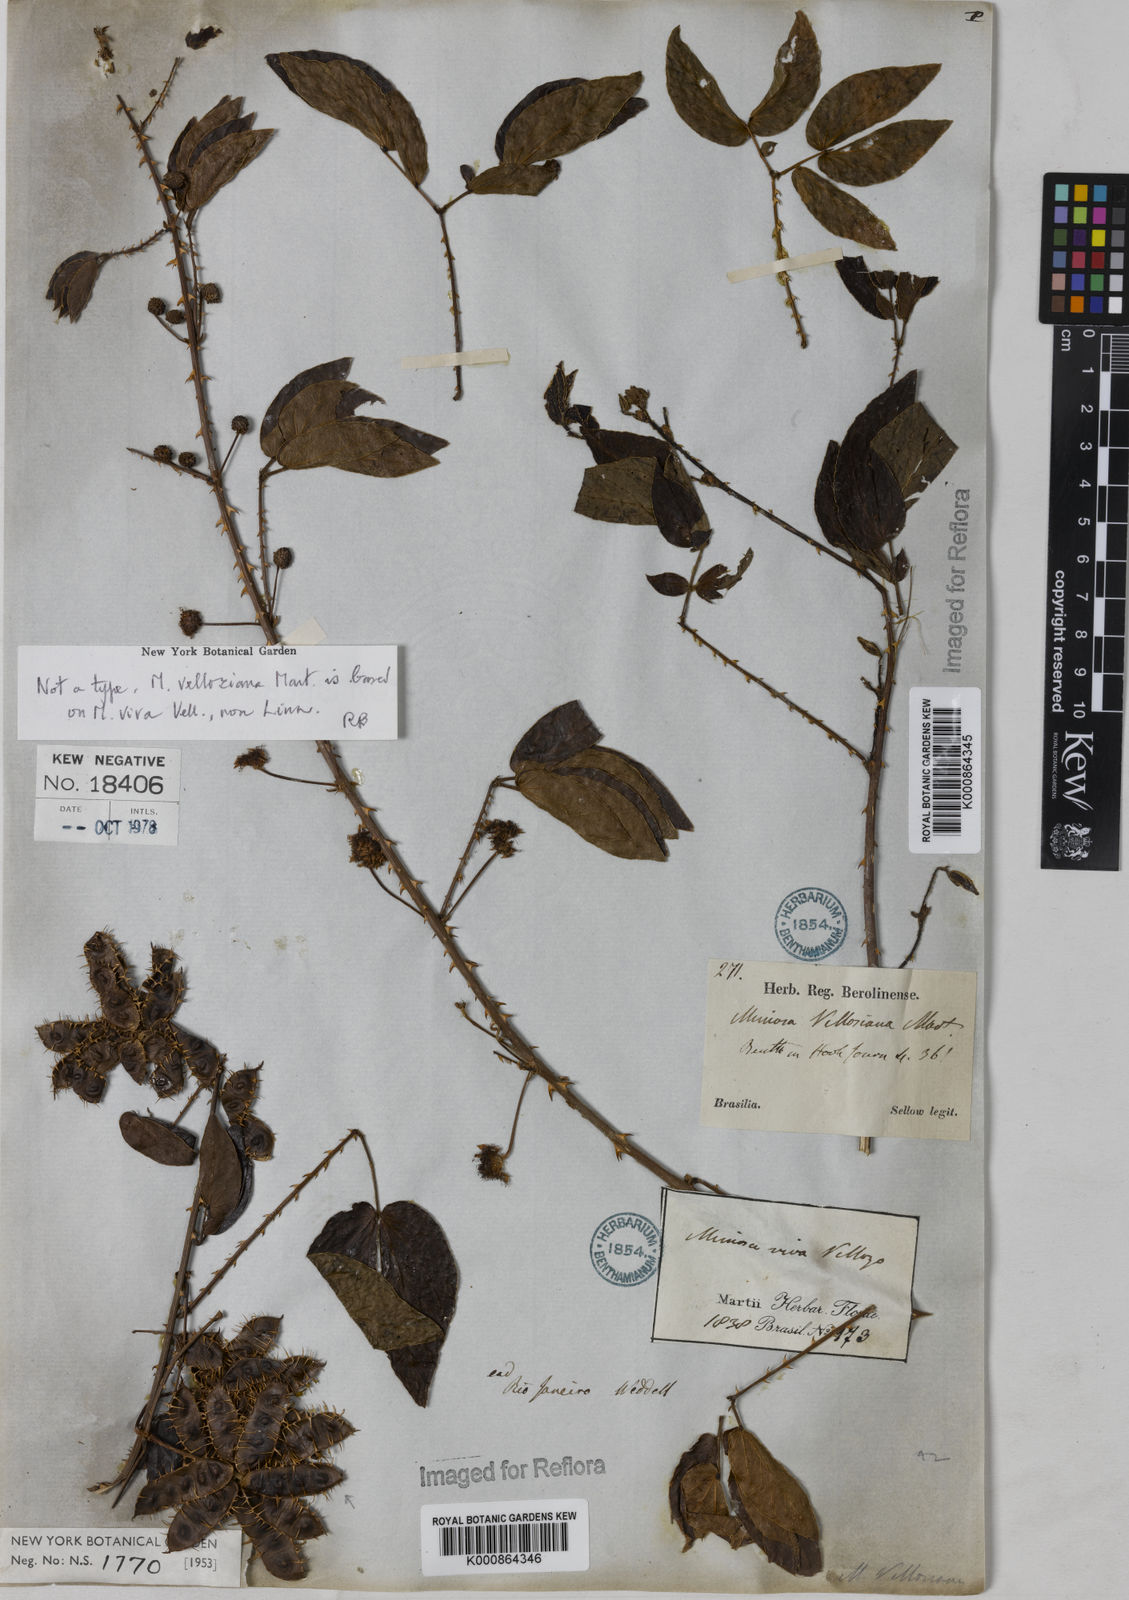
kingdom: Plantae
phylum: Tracheophyta
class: Magnoliopsida
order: Fabales
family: Fabaceae
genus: Mimosa
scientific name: Mimosa velloziana
